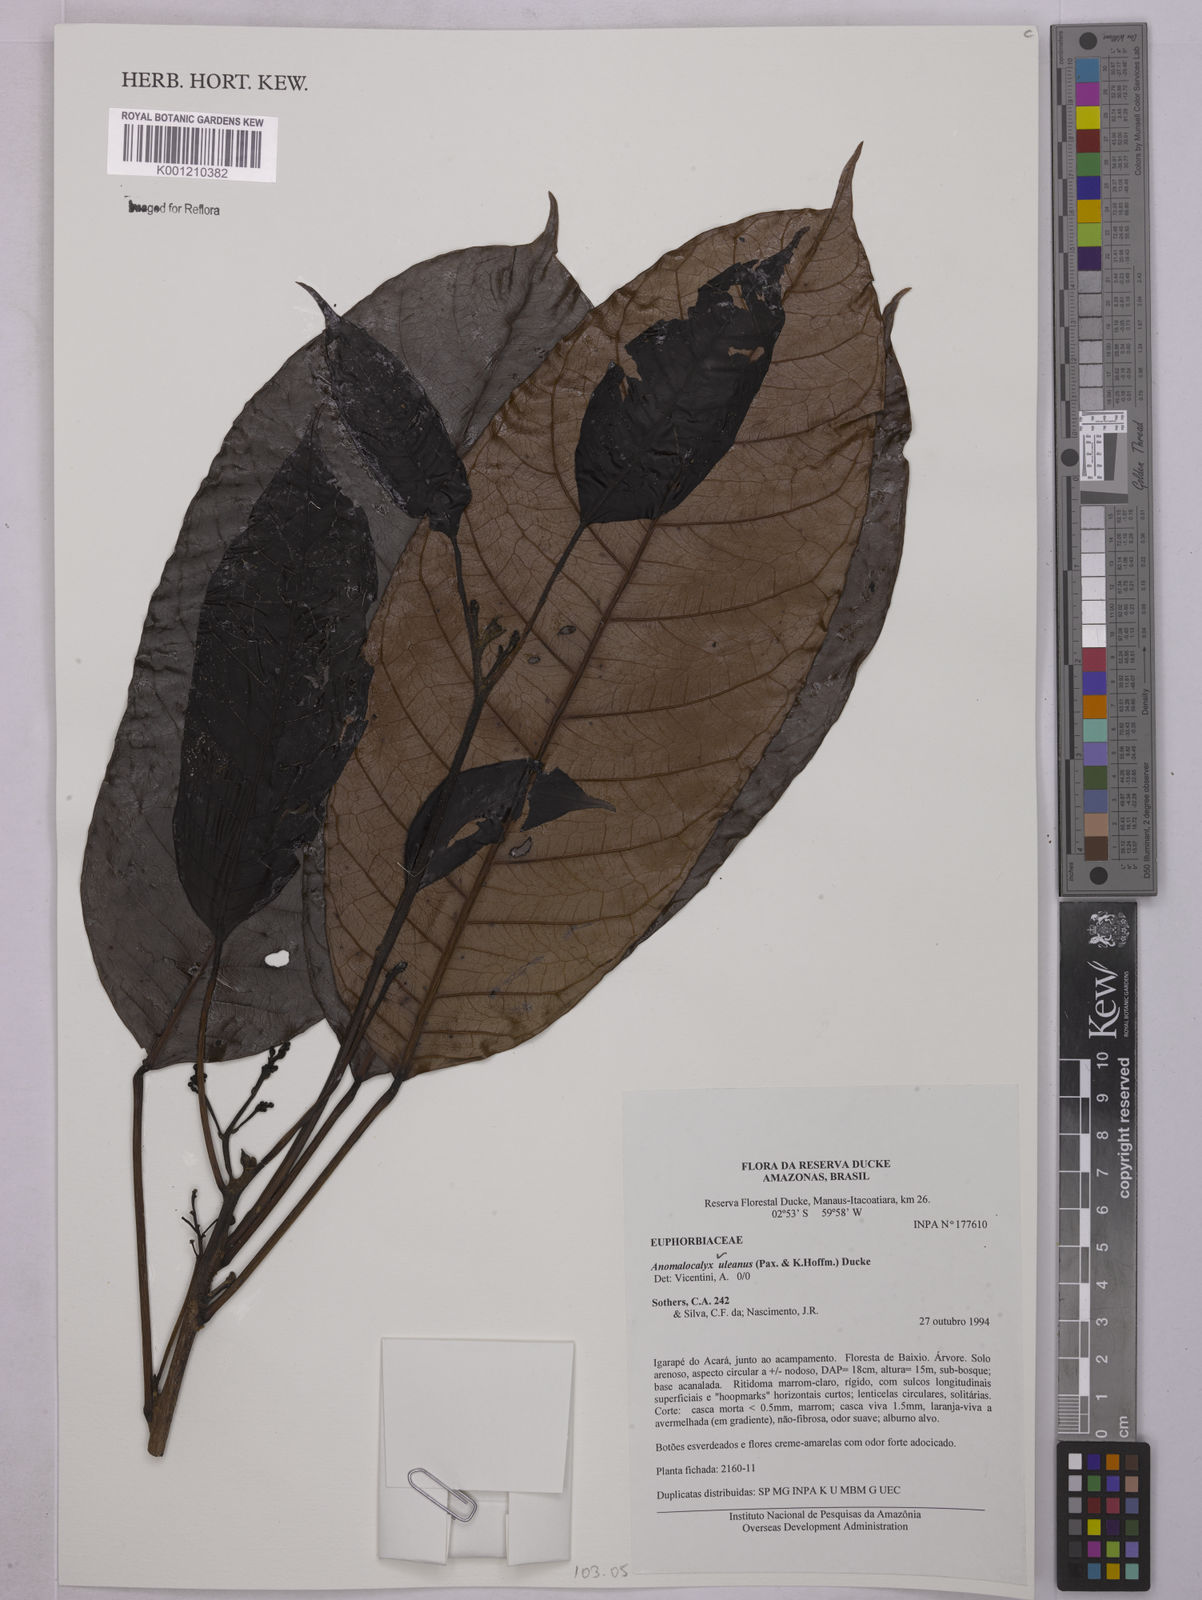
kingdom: Plantae
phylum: Tracheophyta
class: Magnoliopsida
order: Malpighiales
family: Euphorbiaceae
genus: Dodecastigma
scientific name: Dodecastigma uleanum
